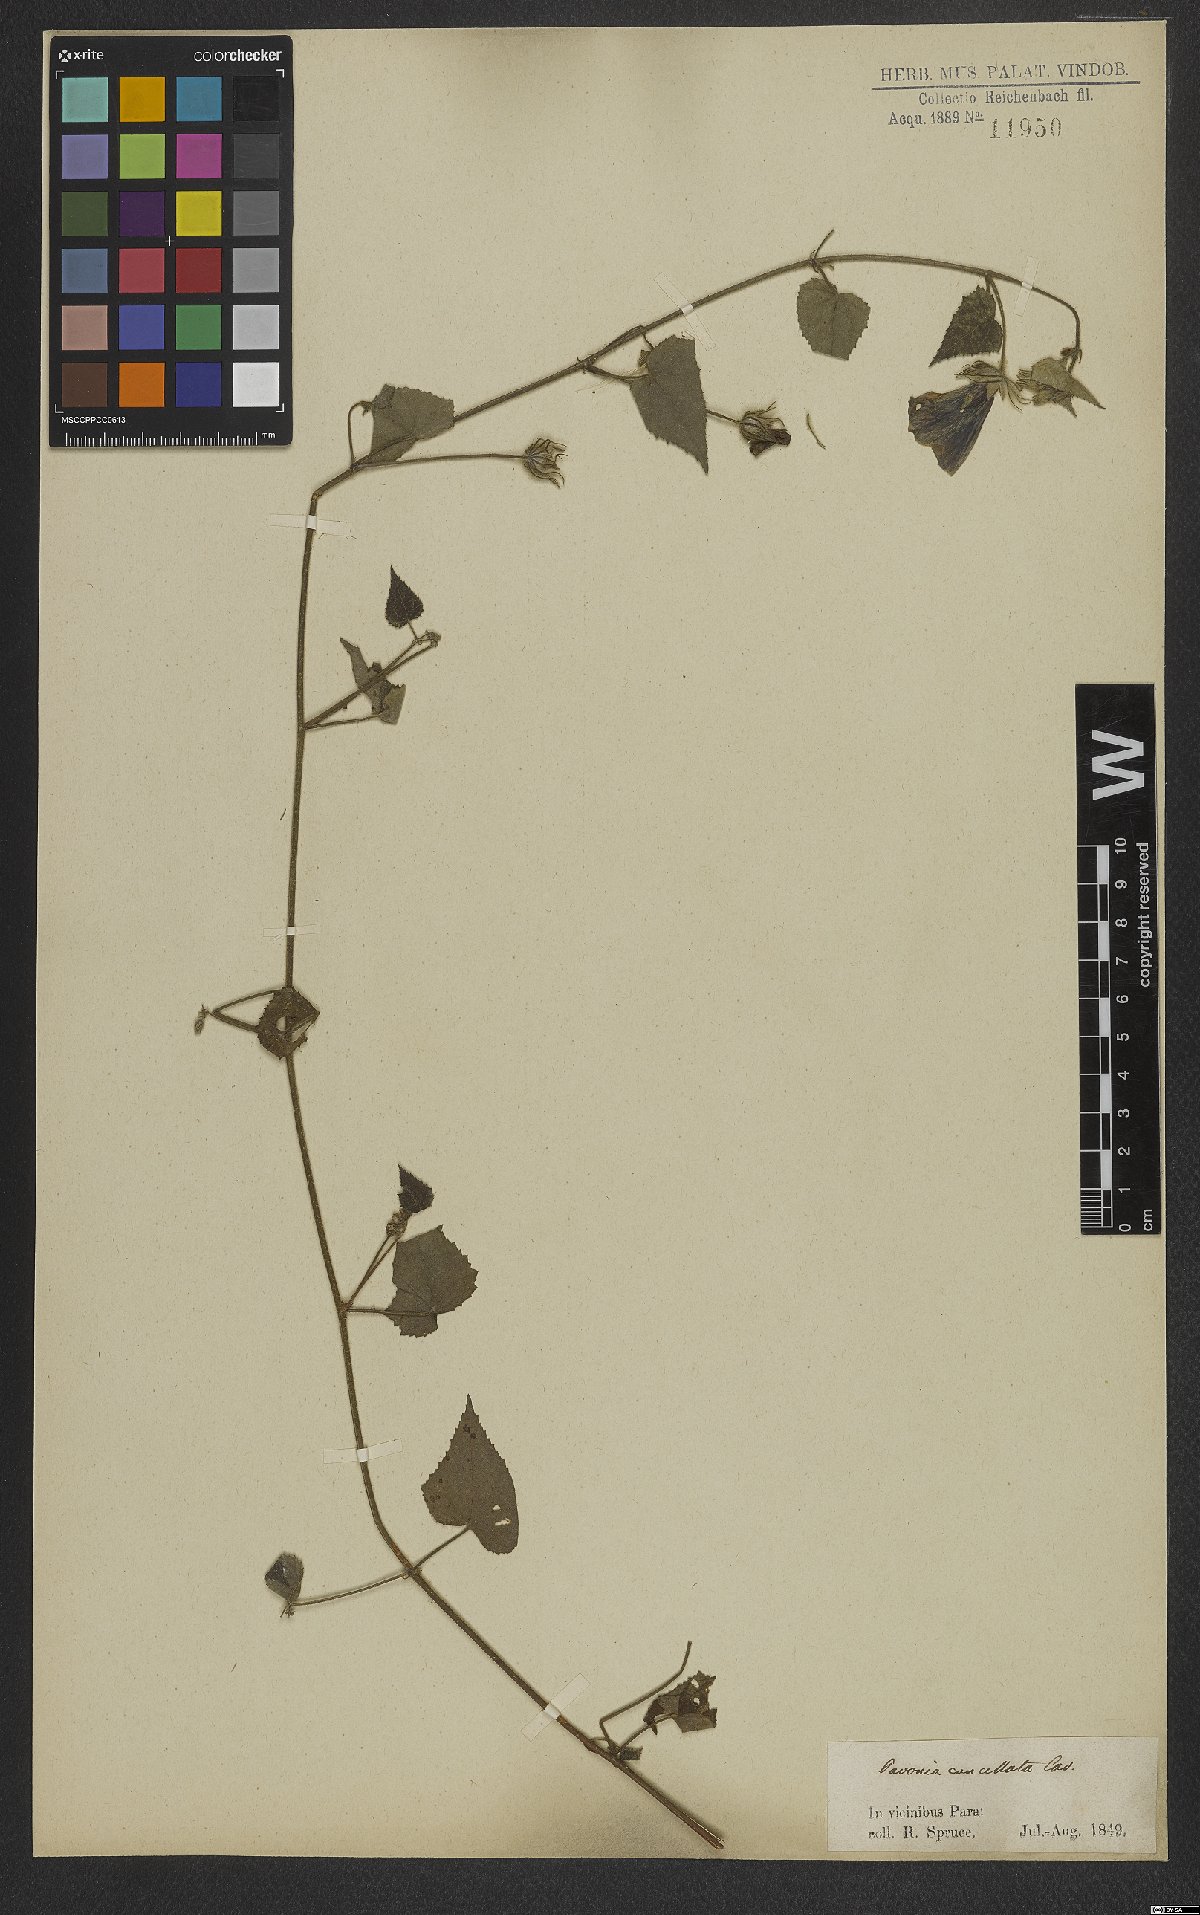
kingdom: Plantae
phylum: Tracheophyta
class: Magnoliopsida
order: Malvales
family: Malvaceae
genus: Pavonia
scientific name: Pavonia cancellata
